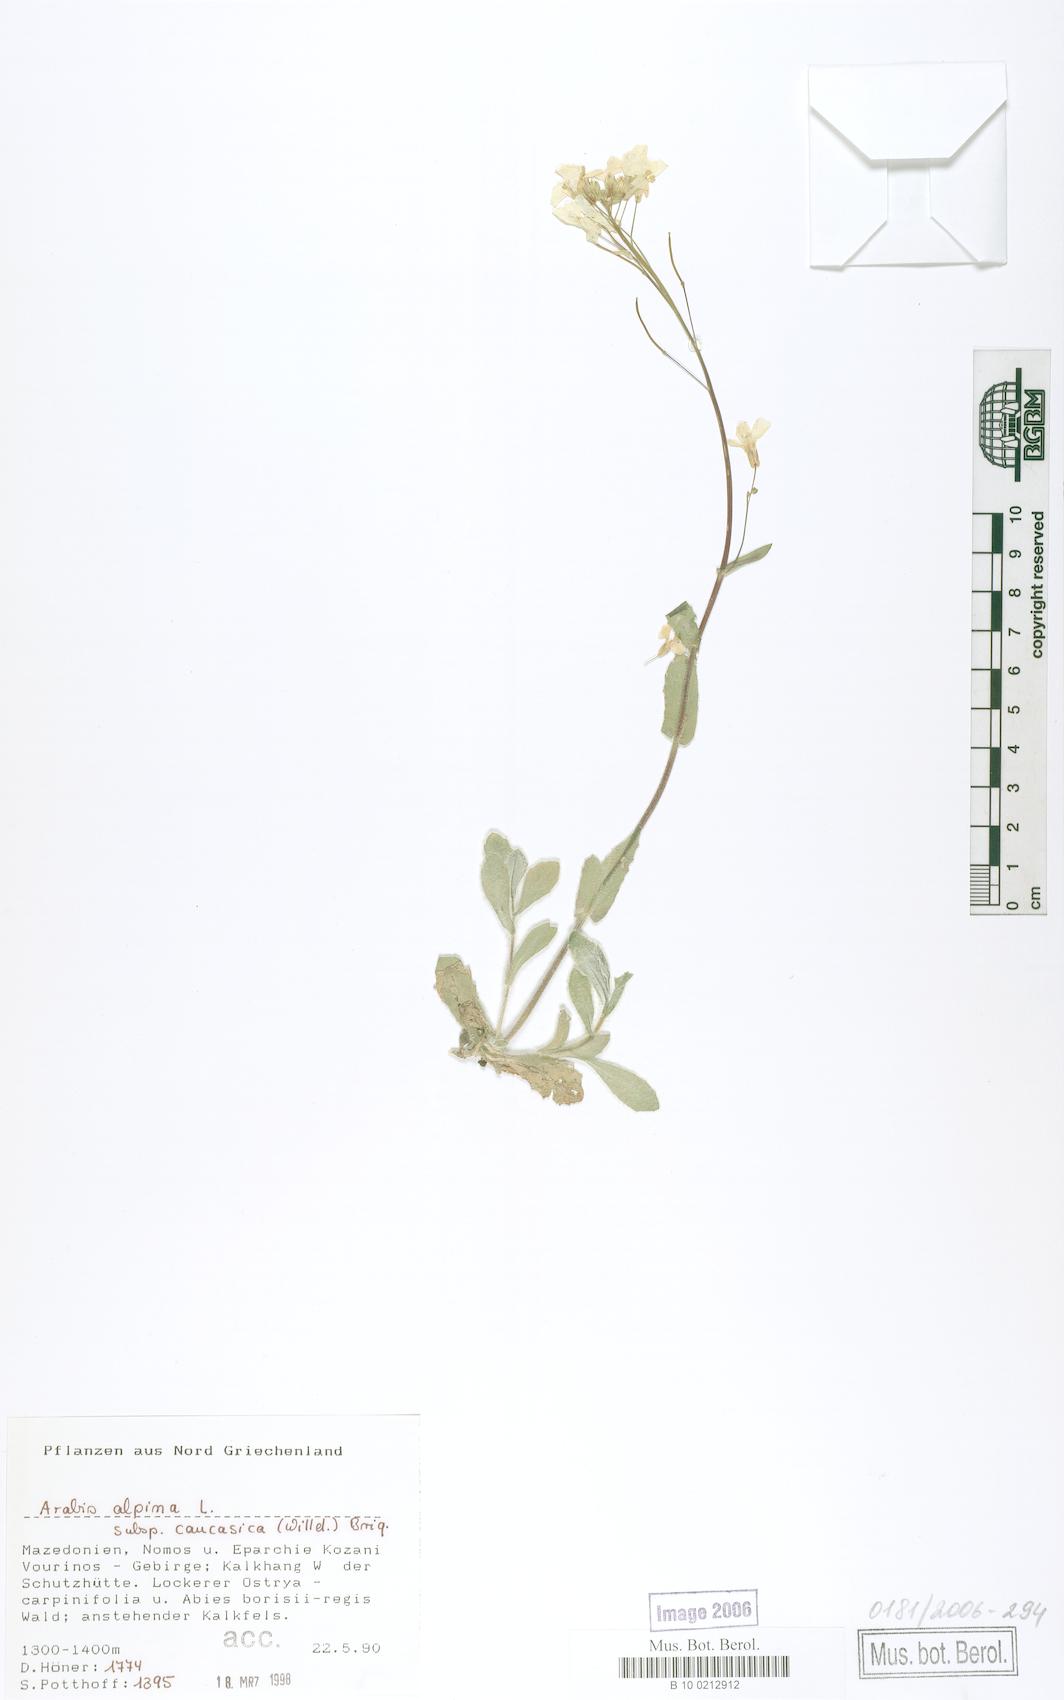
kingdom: Plantae
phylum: Tracheophyta
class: Magnoliopsida
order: Brassicales
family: Brassicaceae
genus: Arabis
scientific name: Arabis caucasica
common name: Gray rockcress
